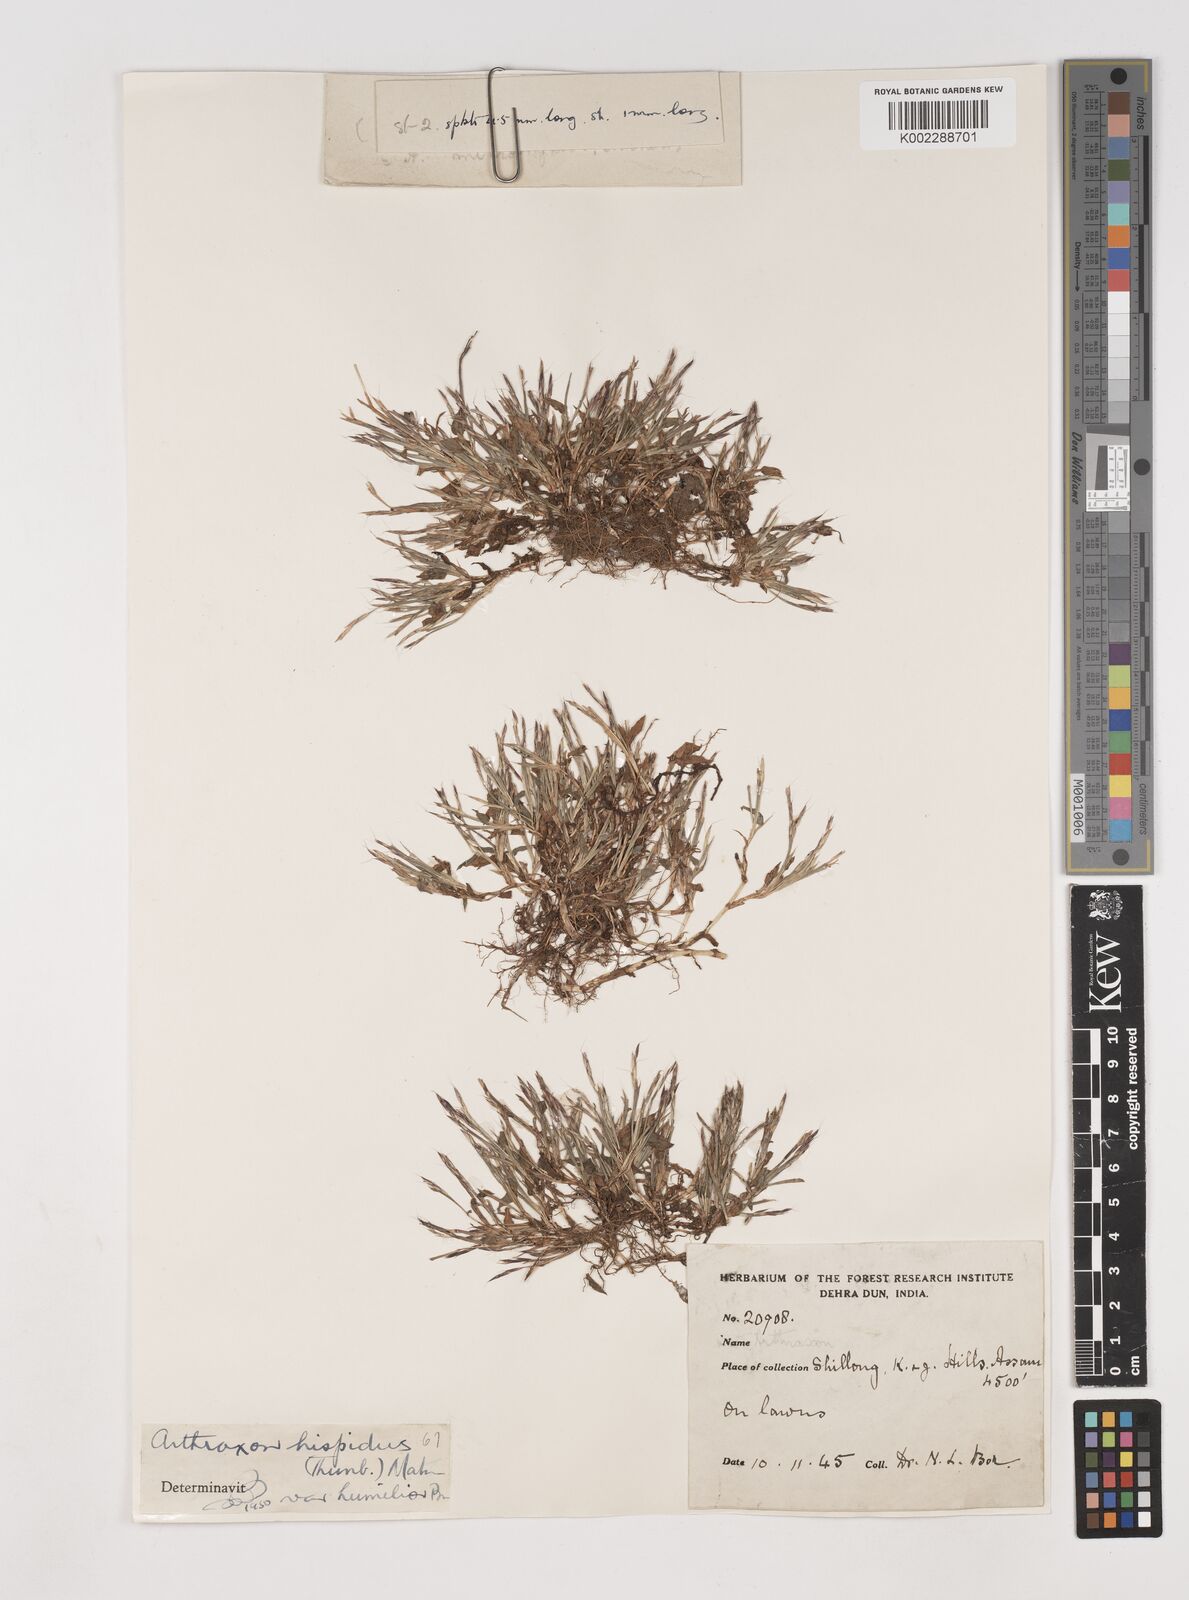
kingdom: Plantae
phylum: Tracheophyta
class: Liliopsida
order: Poales
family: Poaceae
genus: Arthraxon
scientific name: Arthraxon hispidus
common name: Small carpgrass
